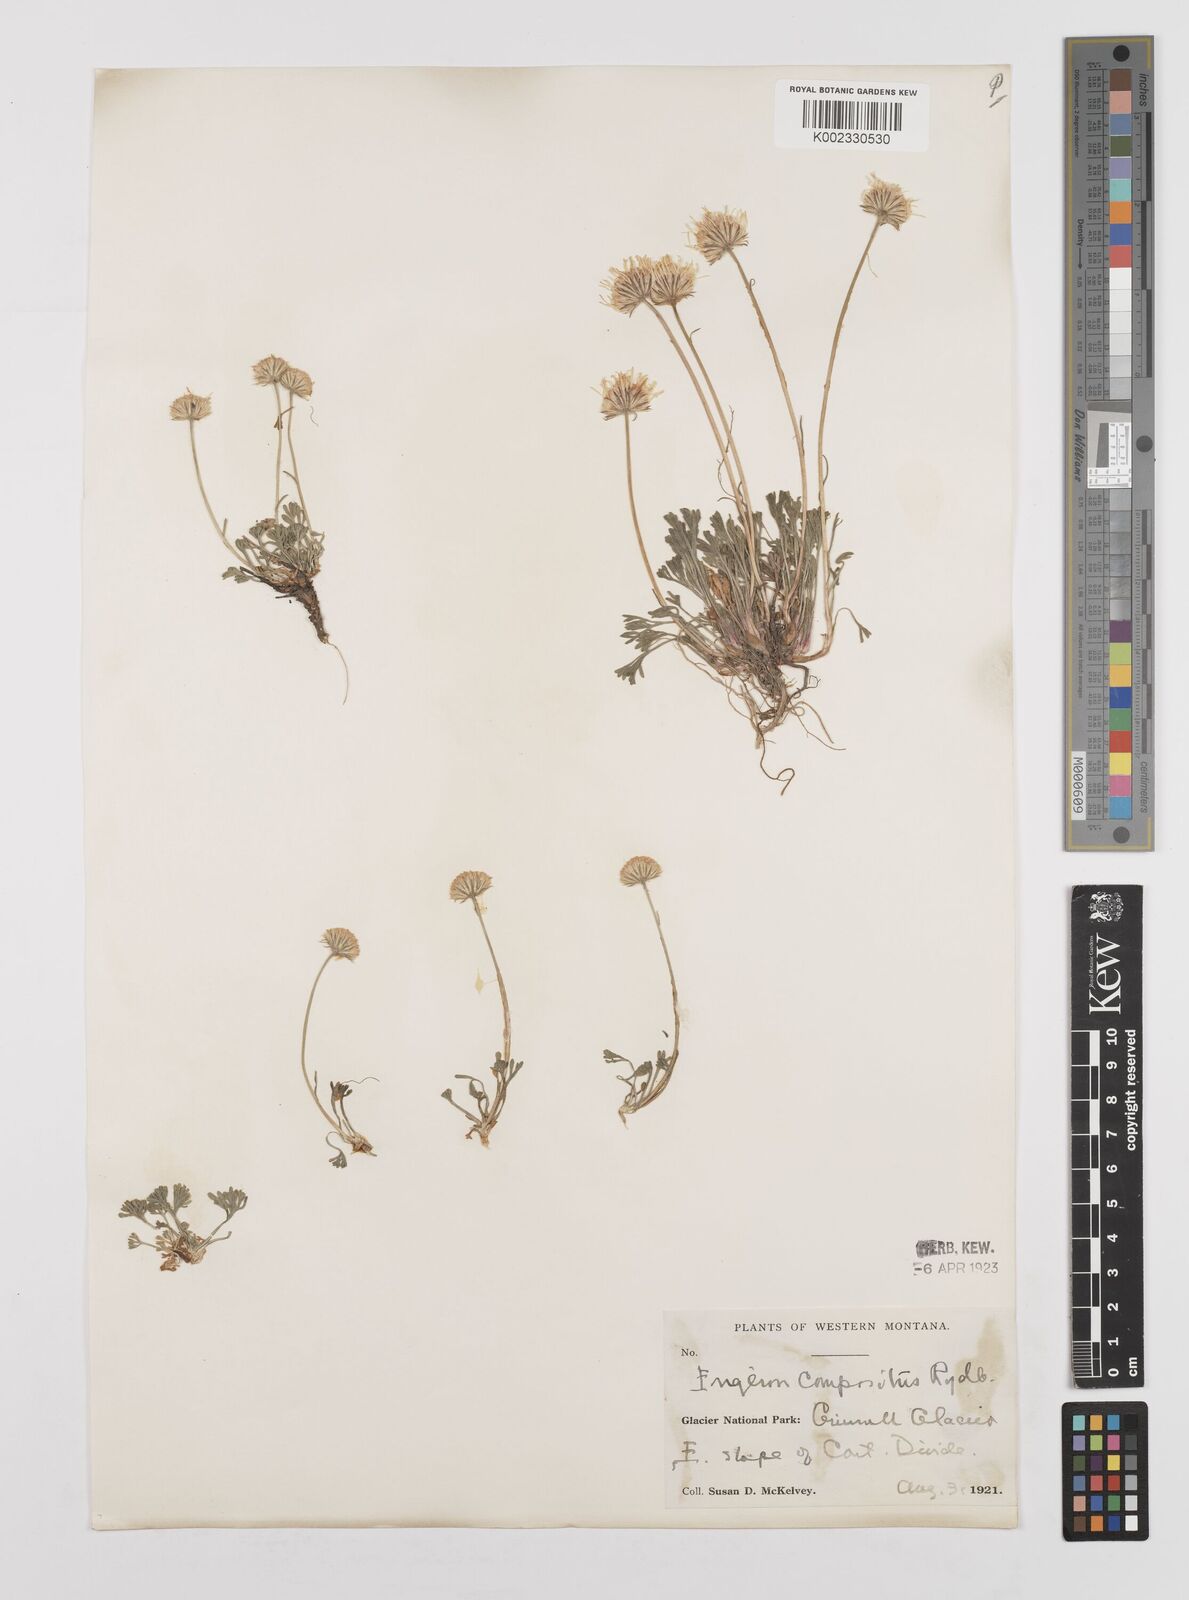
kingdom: Plantae
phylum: Tracheophyta
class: Magnoliopsida
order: Asterales
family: Asteraceae
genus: Erigeron
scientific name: Erigeron compositus
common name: Dwarf mountain fleabane
